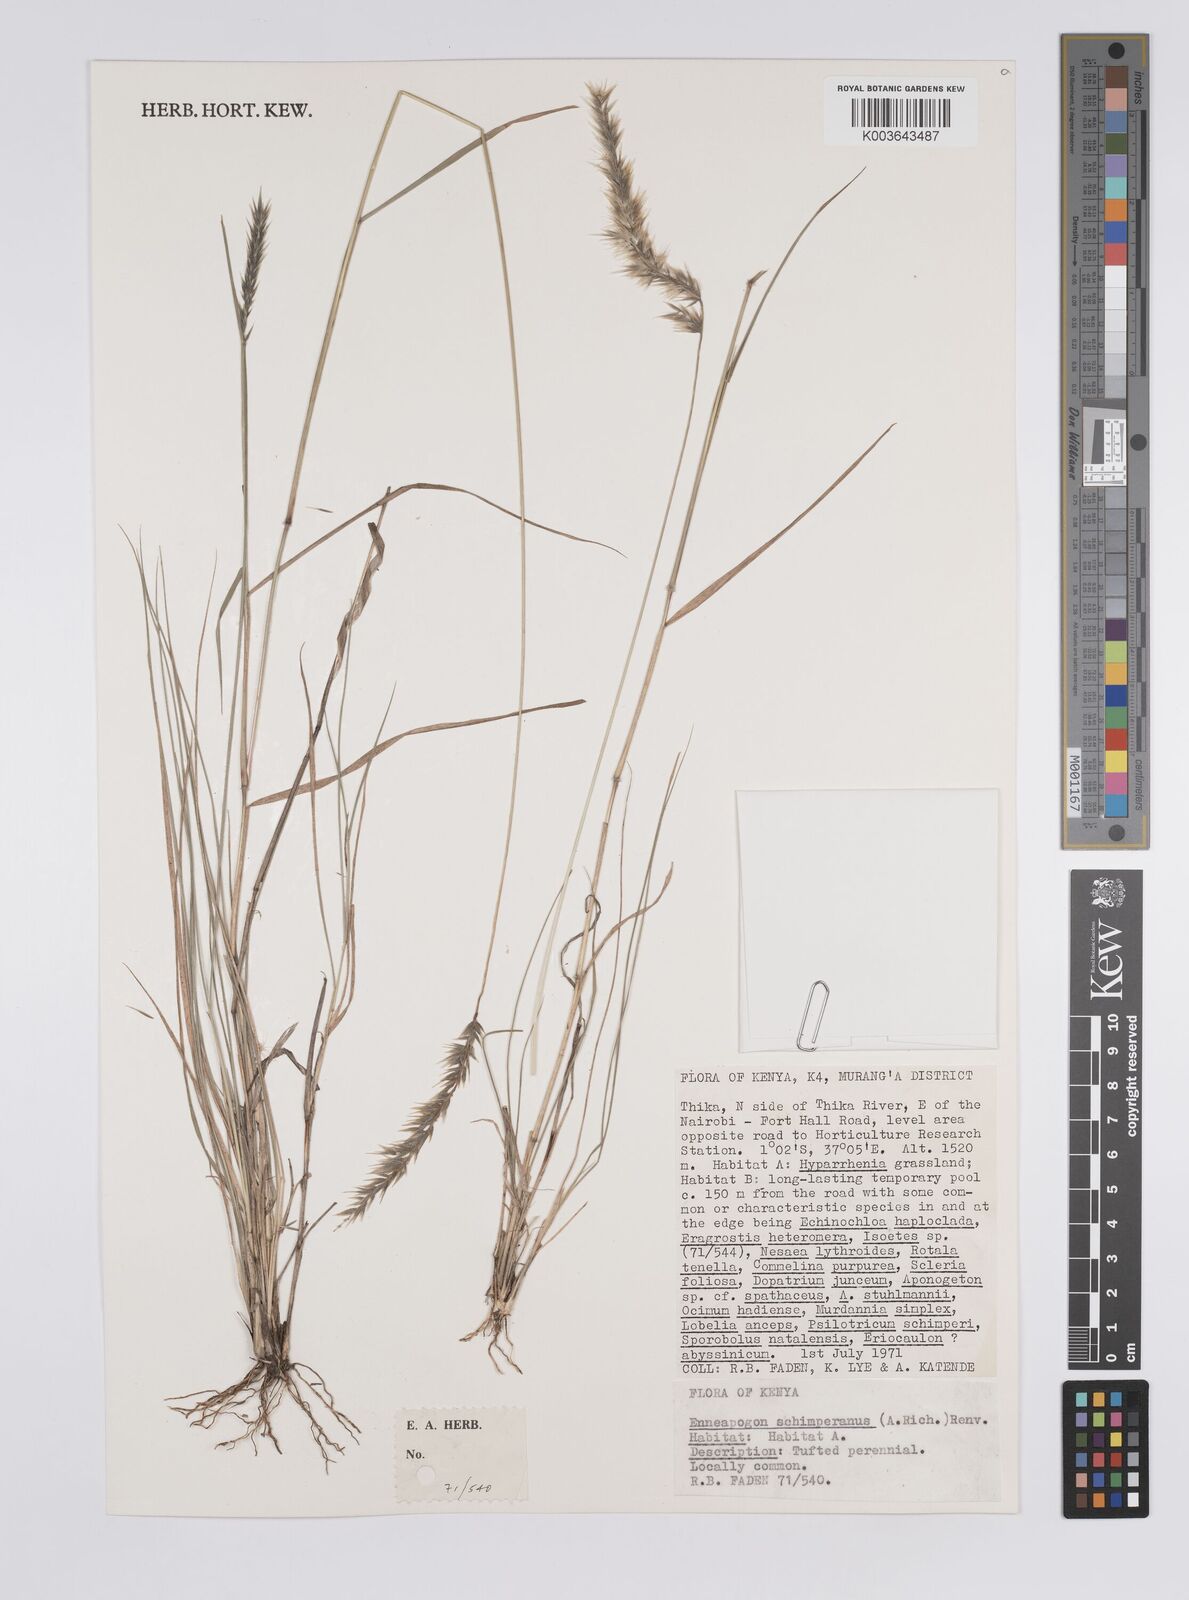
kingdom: Plantae
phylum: Tracheophyta
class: Liliopsida
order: Poales
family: Poaceae
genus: Enneapogon
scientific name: Enneapogon persicus
